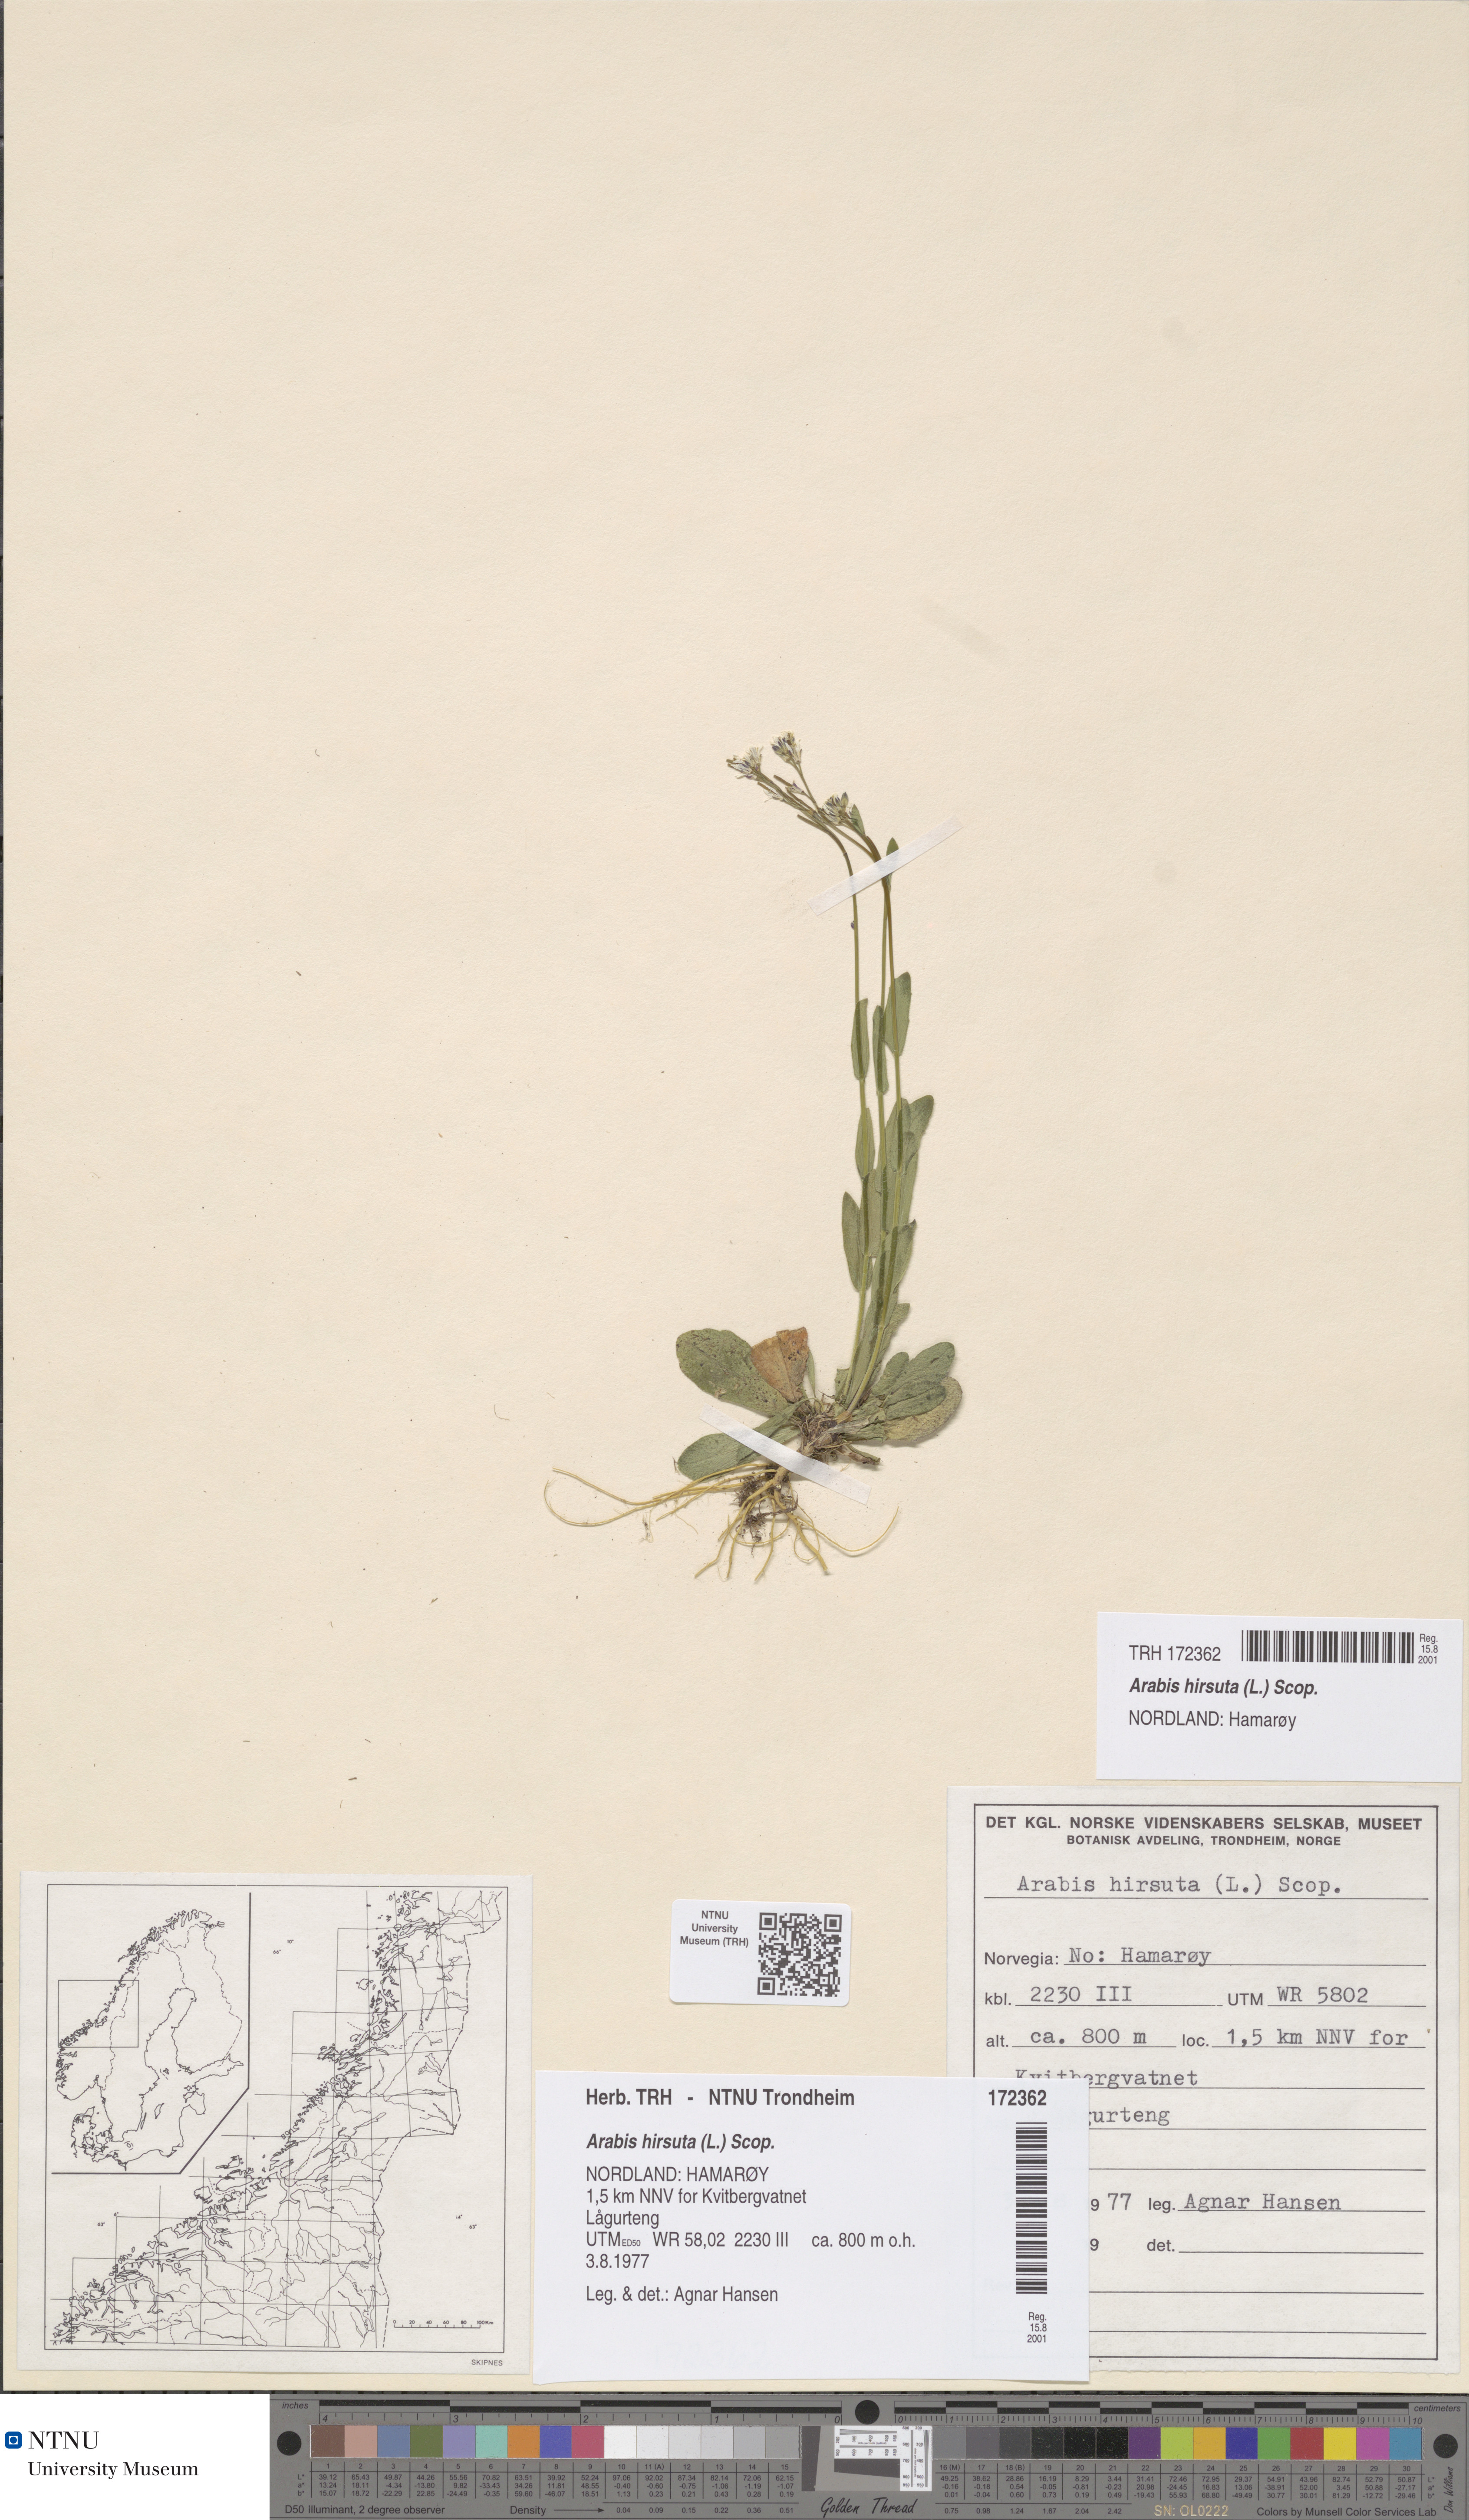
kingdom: Plantae
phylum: Tracheophyta
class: Magnoliopsida
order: Brassicales
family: Brassicaceae
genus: Arabis
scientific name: Arabis hirsuta
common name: Hairy rock-cress
